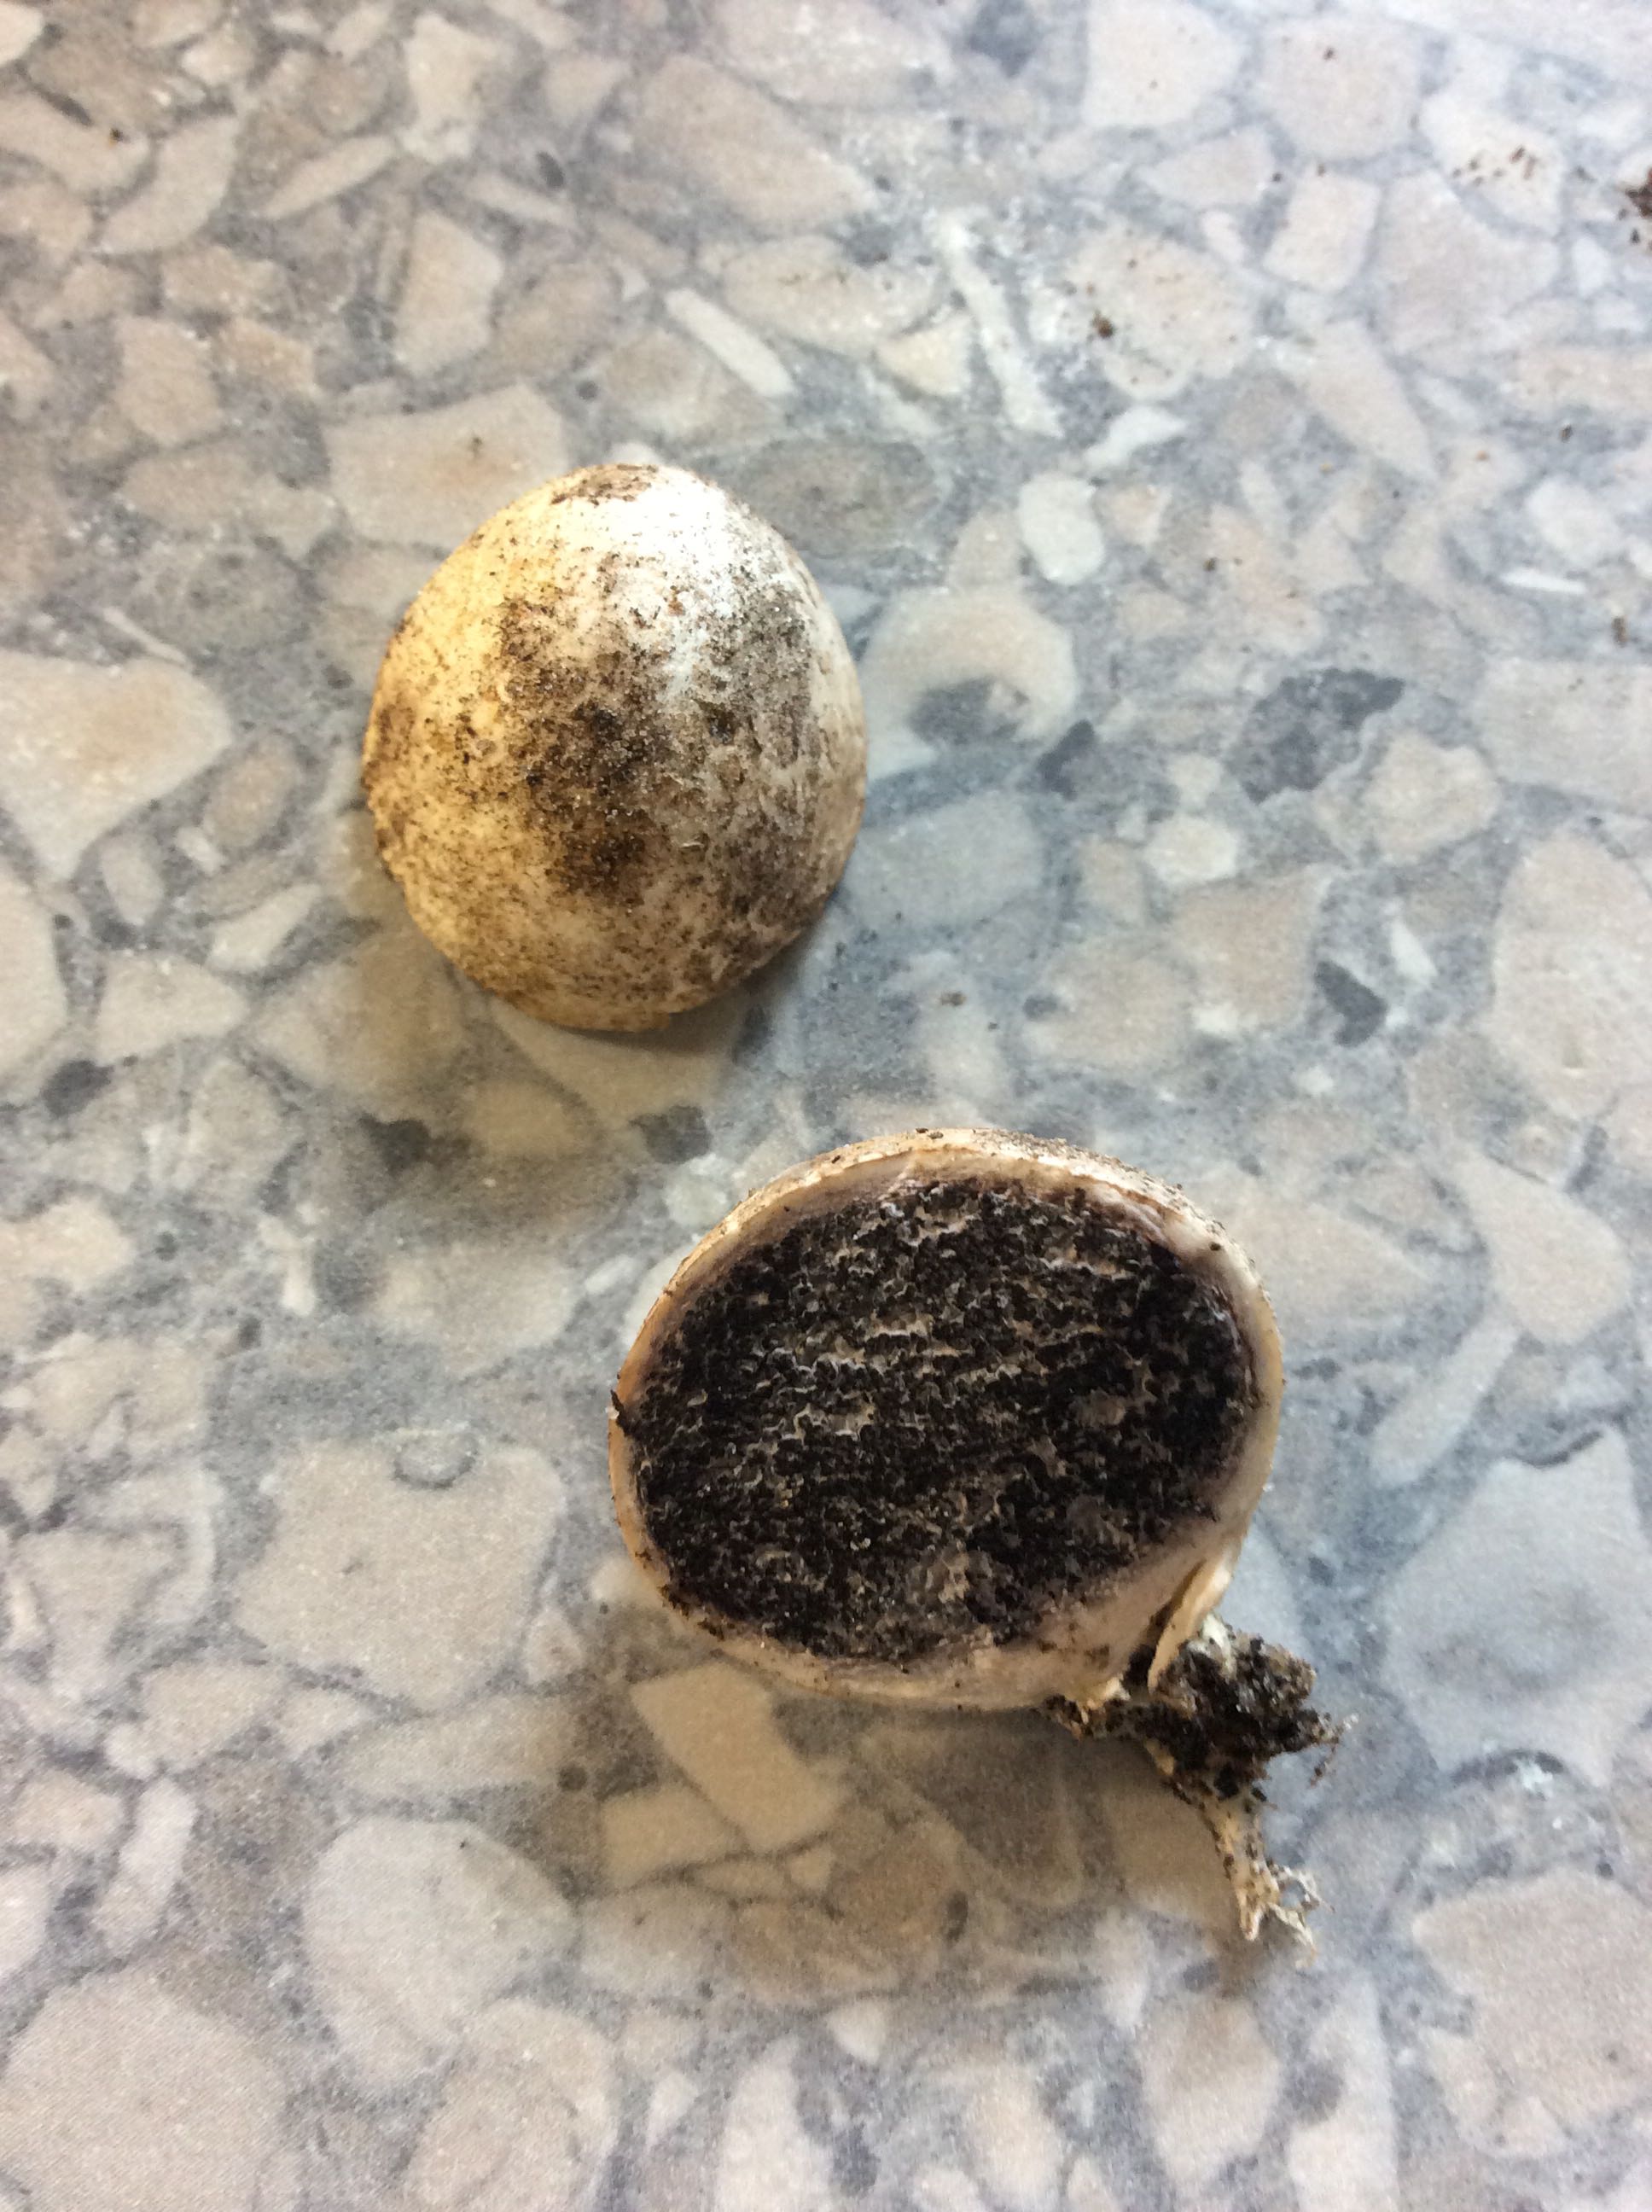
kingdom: Fungi
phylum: Basidiomycota
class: Agaricomycetes
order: Boletales
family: Sclerodermataceae
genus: Scleroderma
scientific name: Scleroderma
